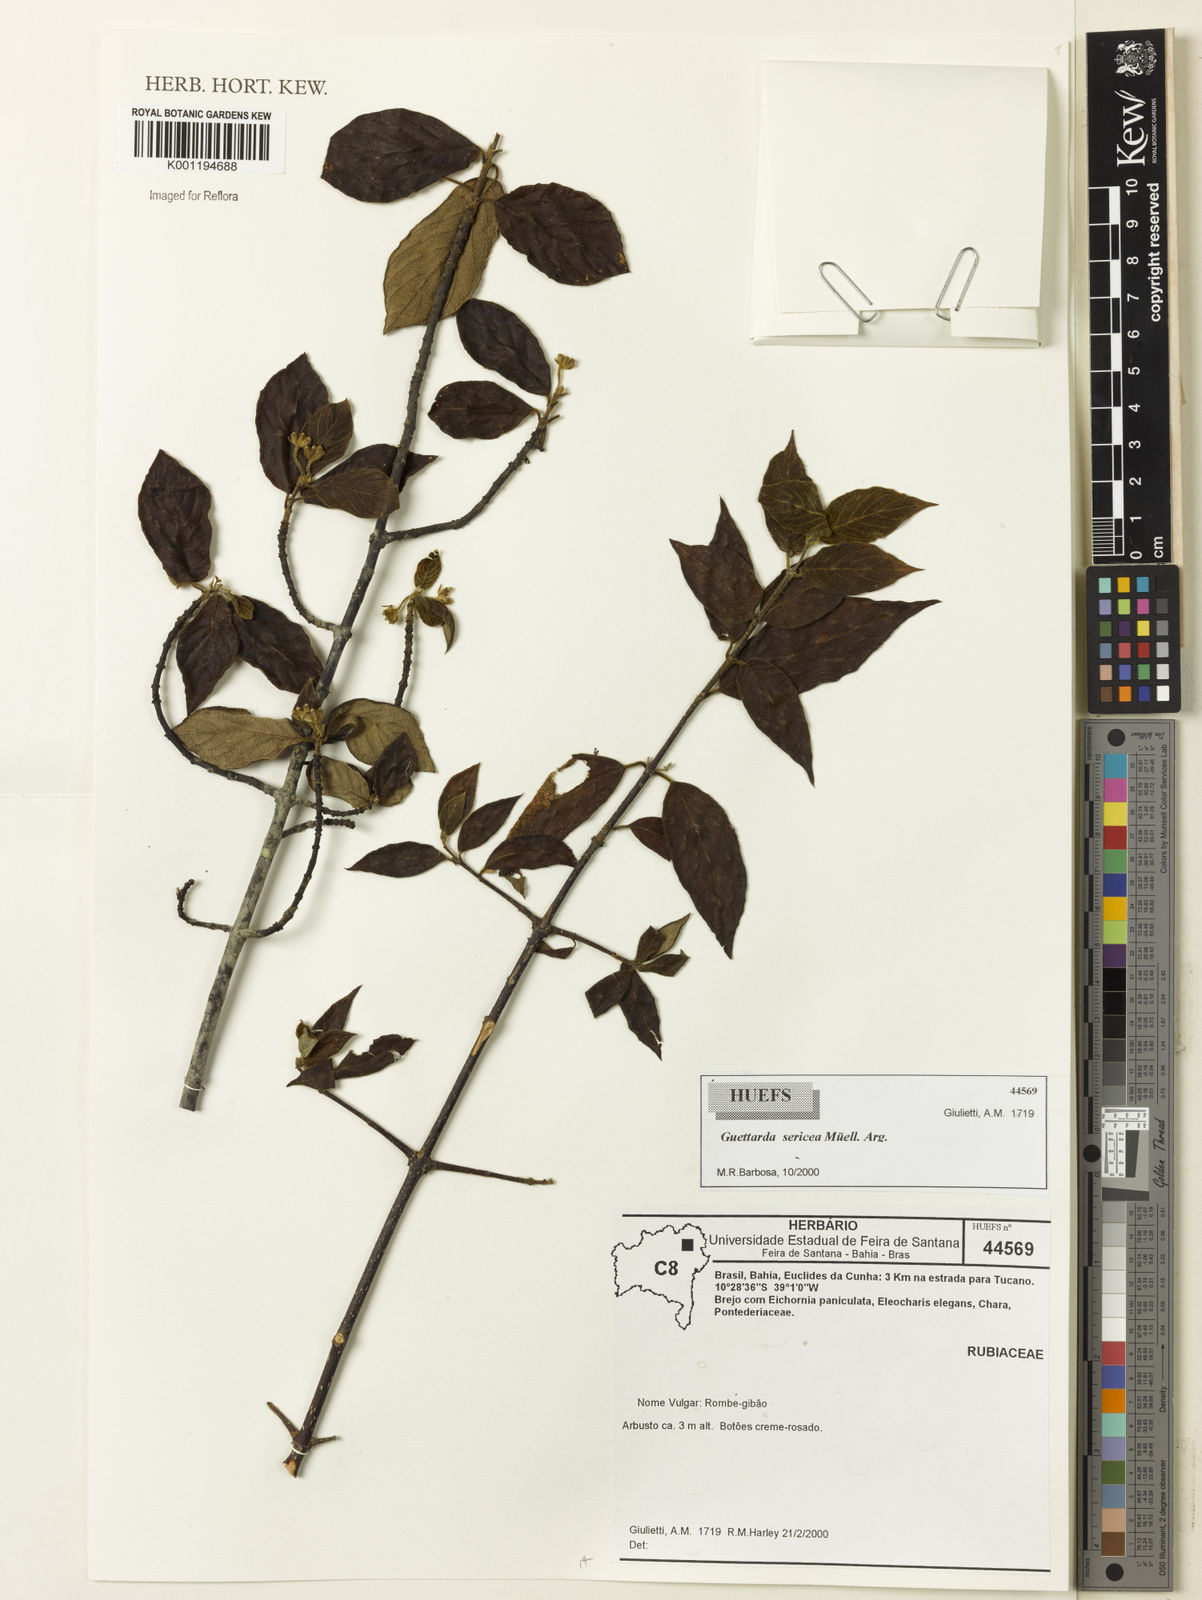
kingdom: Plantae
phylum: Tracheophyta
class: Magnoliopsida
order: Gentianales
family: Rubiaceae
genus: Guettarda
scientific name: Guettarda
